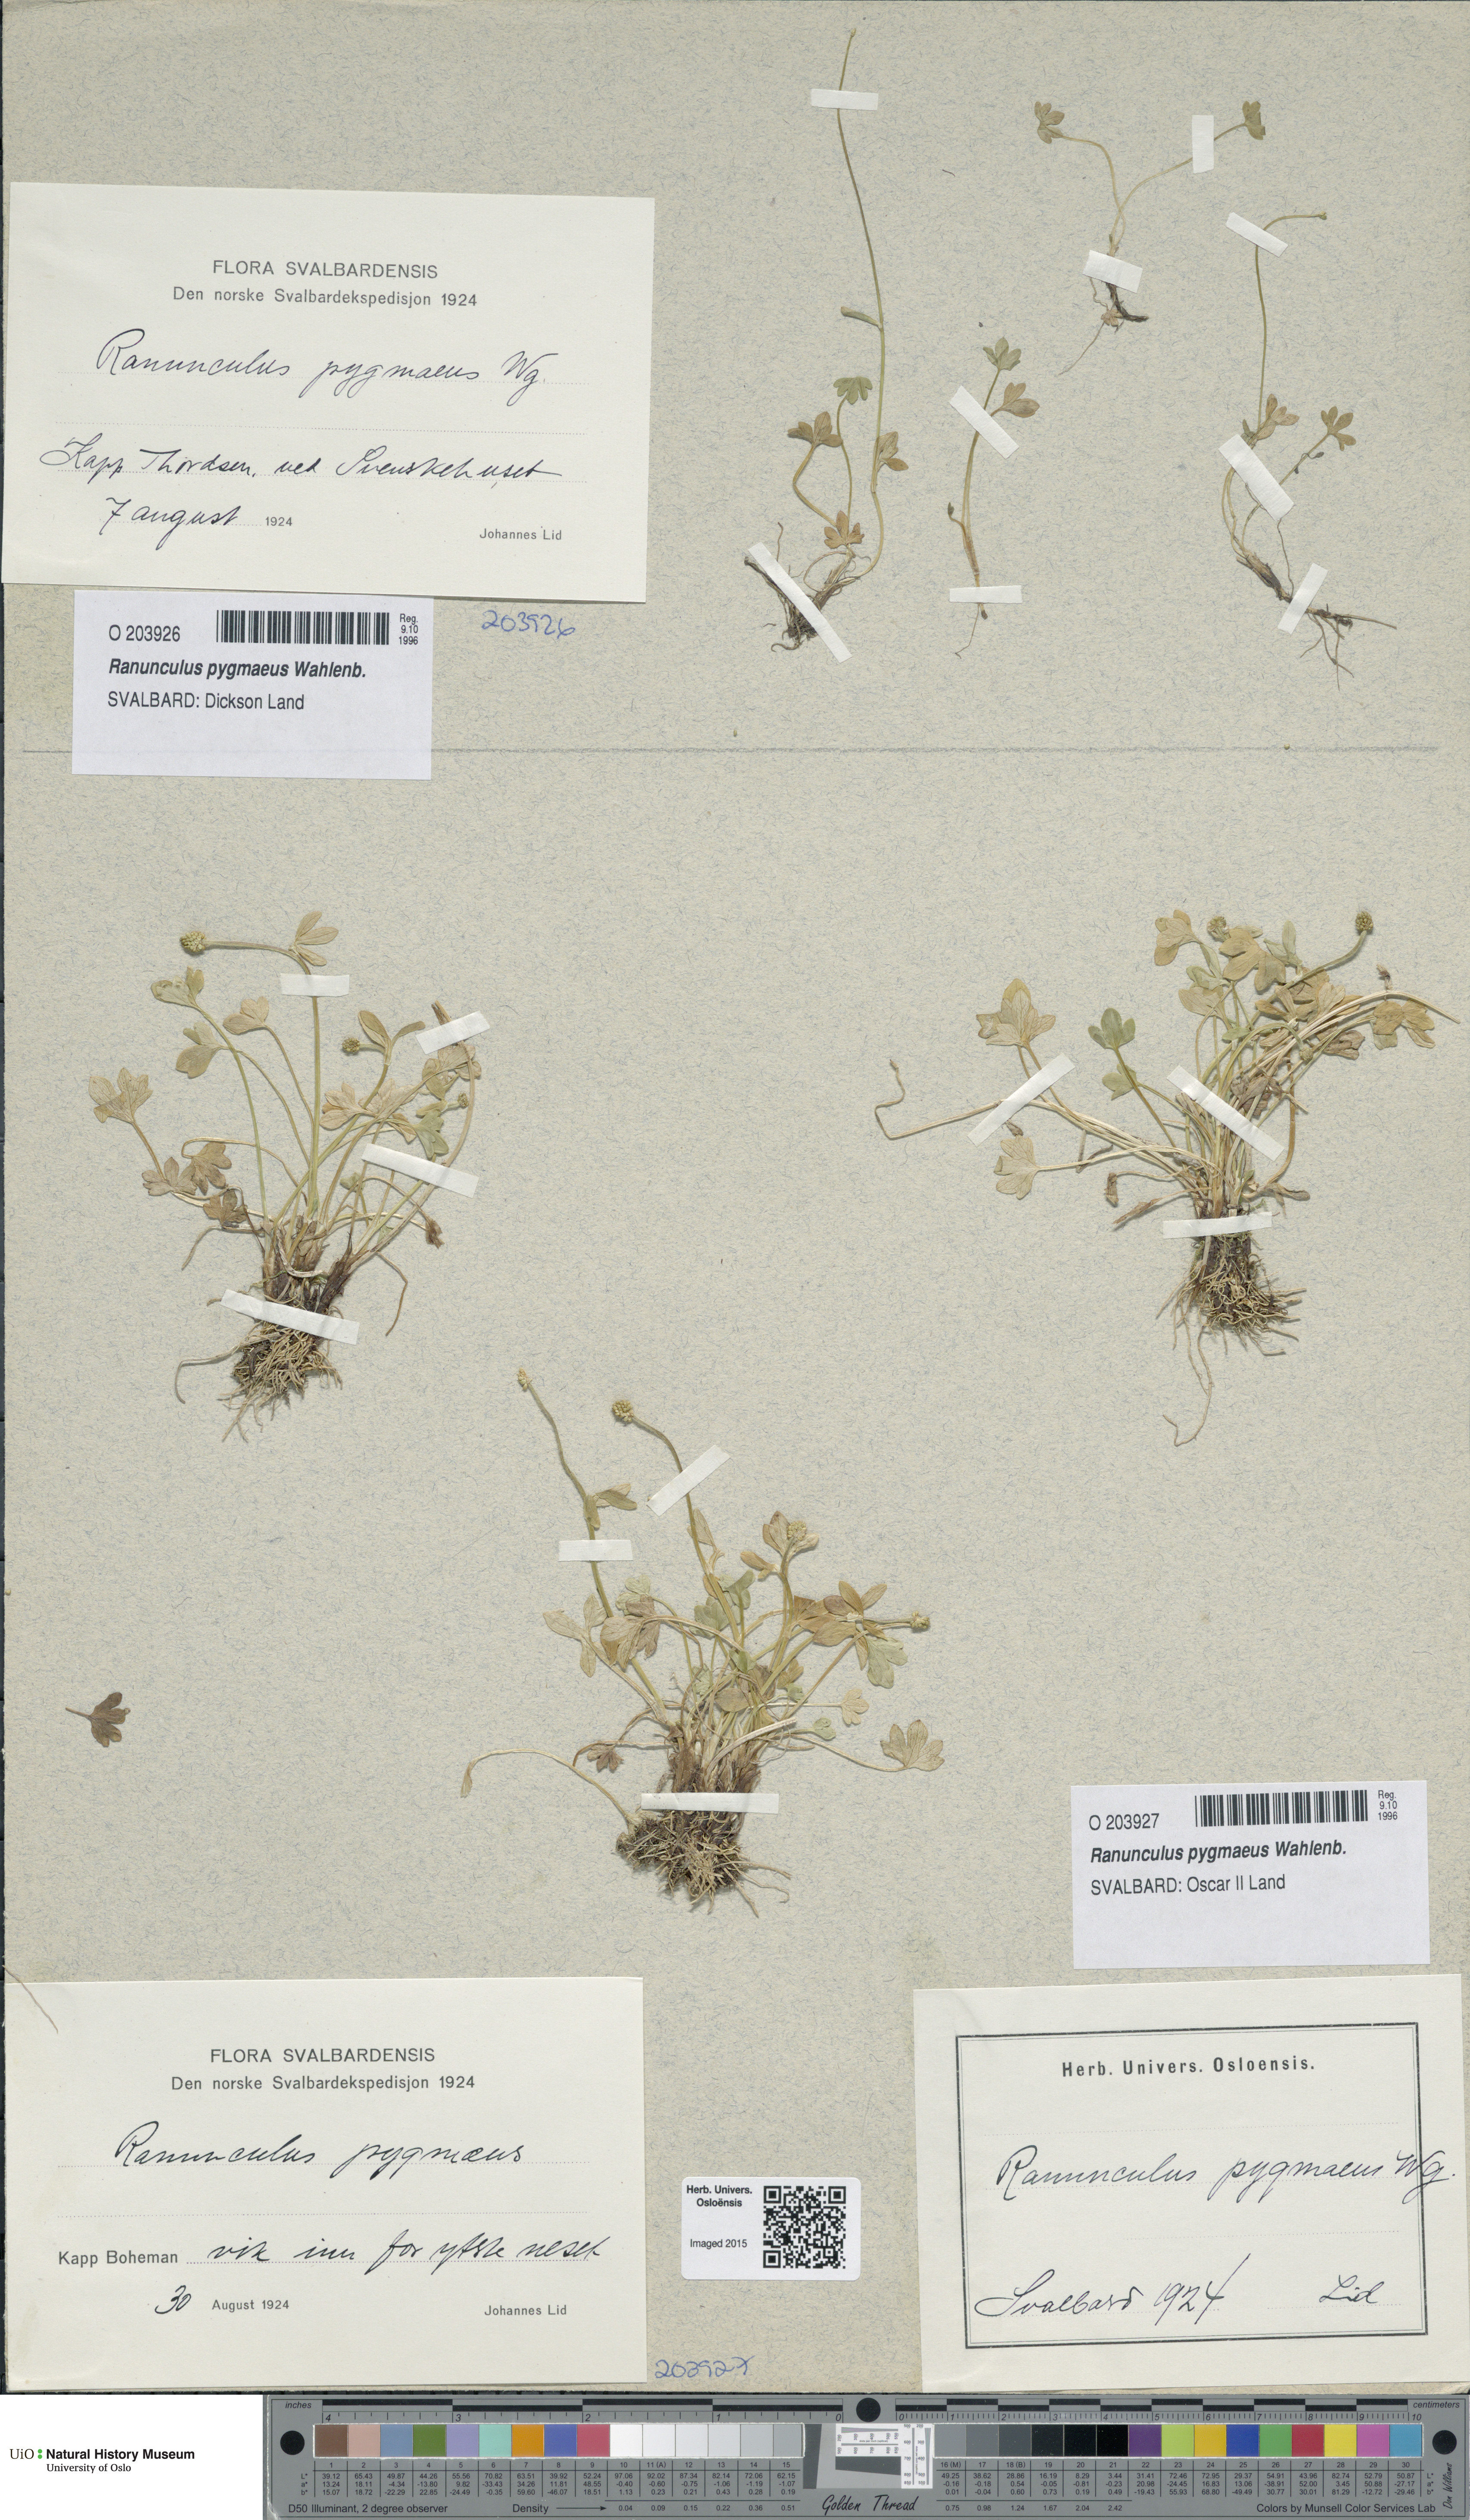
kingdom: Plantae
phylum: Tracheophyta
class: Magnoliopsida
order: Ranunculales
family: Ranunculaceae
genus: Ranunculus
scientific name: Ranunculus pygmaeus
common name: Dwarf buttercup
